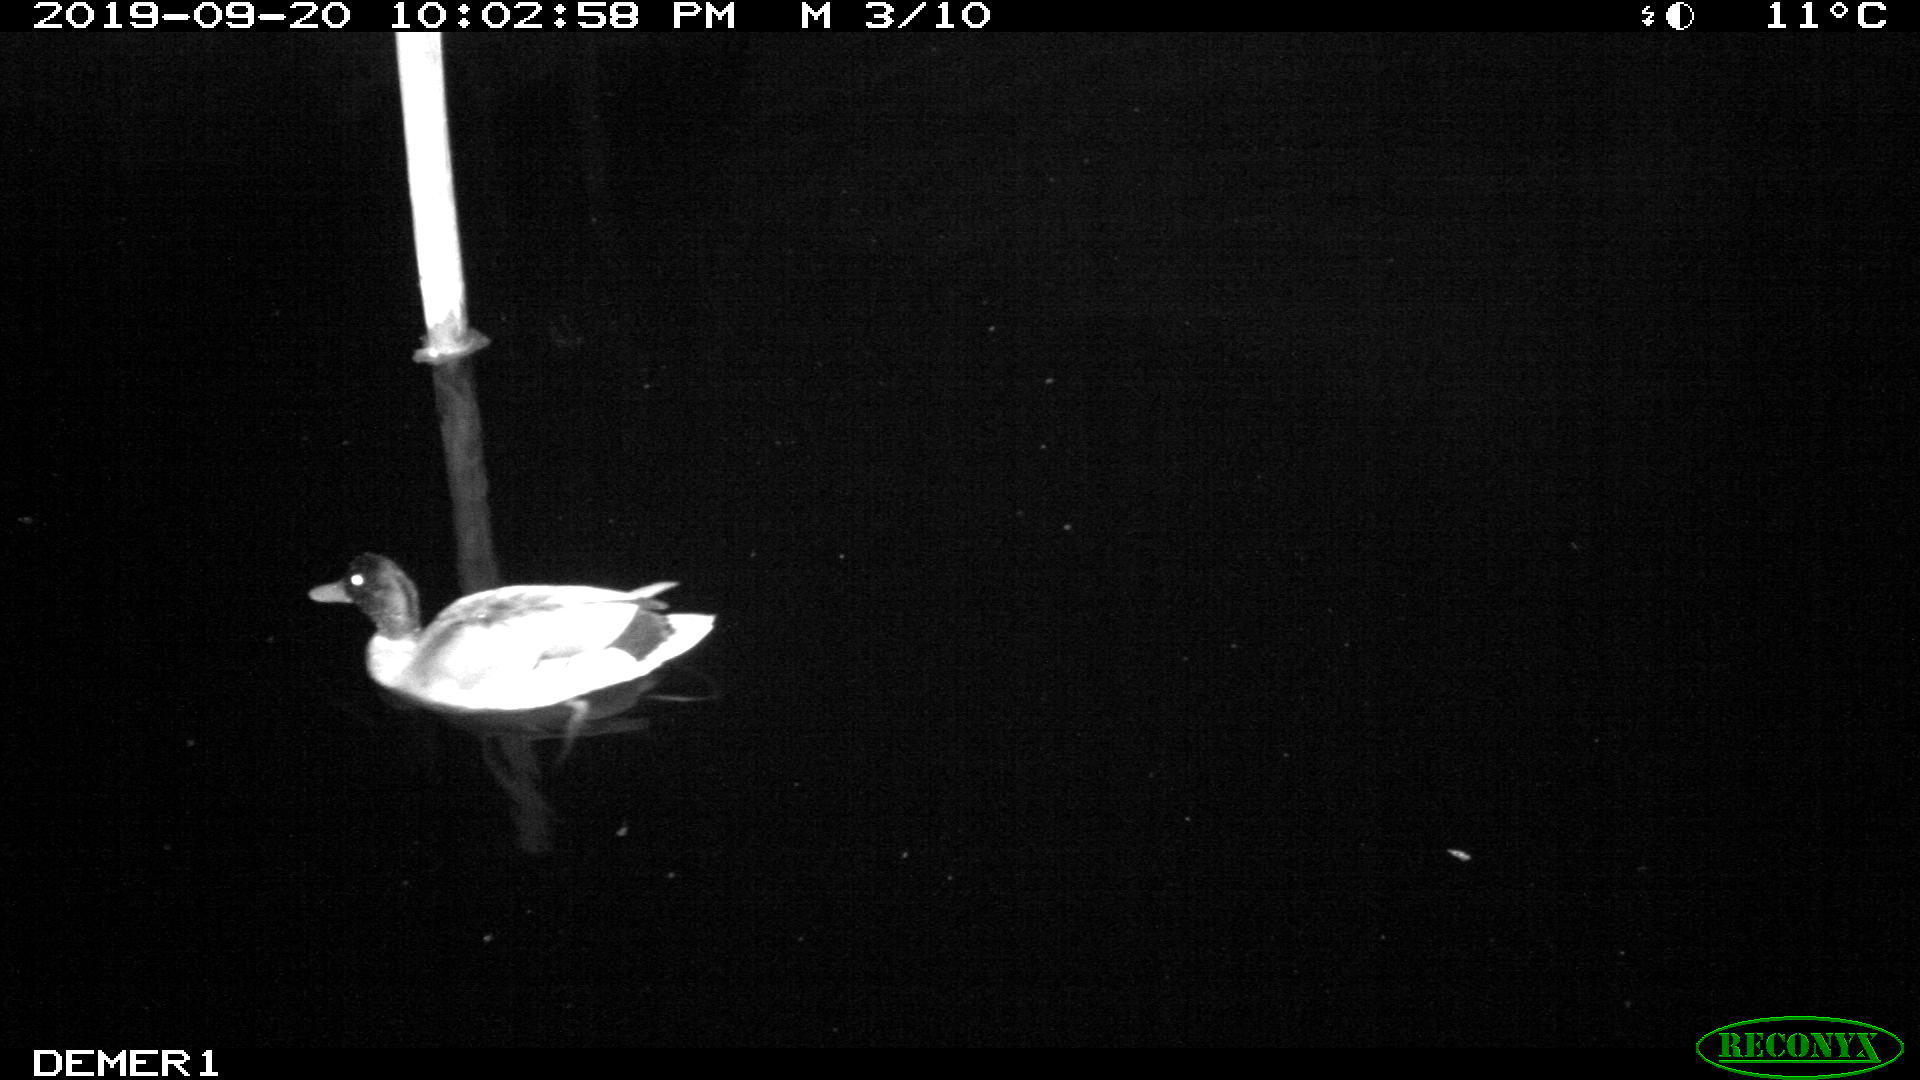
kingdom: Animalia
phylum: Chordata
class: Aves
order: Anseriformes
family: Anatidae
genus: Anas
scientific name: Anas platyrhynchos
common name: Mallard
